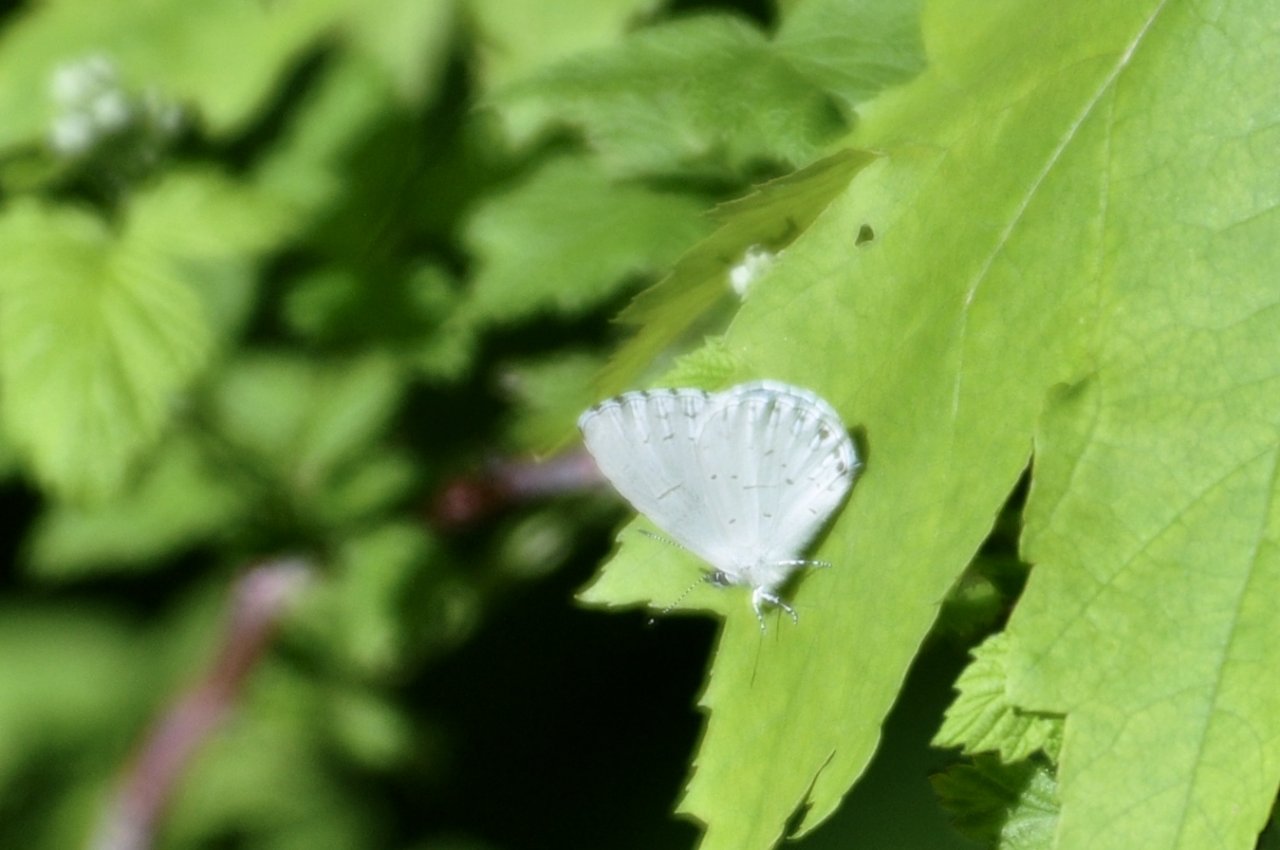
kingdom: Animalia
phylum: Arthropoda
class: Insecta
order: Lepidoptera
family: Lycaenidae
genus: Celastrina
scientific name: Celastrina neglectamajor
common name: Appalachian Azure
